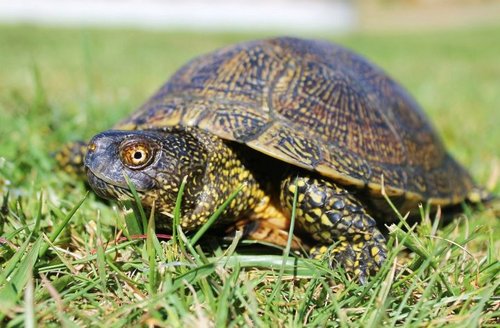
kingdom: Animalia
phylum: Chordata
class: Testudines
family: Emydidae
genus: Emys
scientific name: Emys orbicularis
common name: European pond turtle
